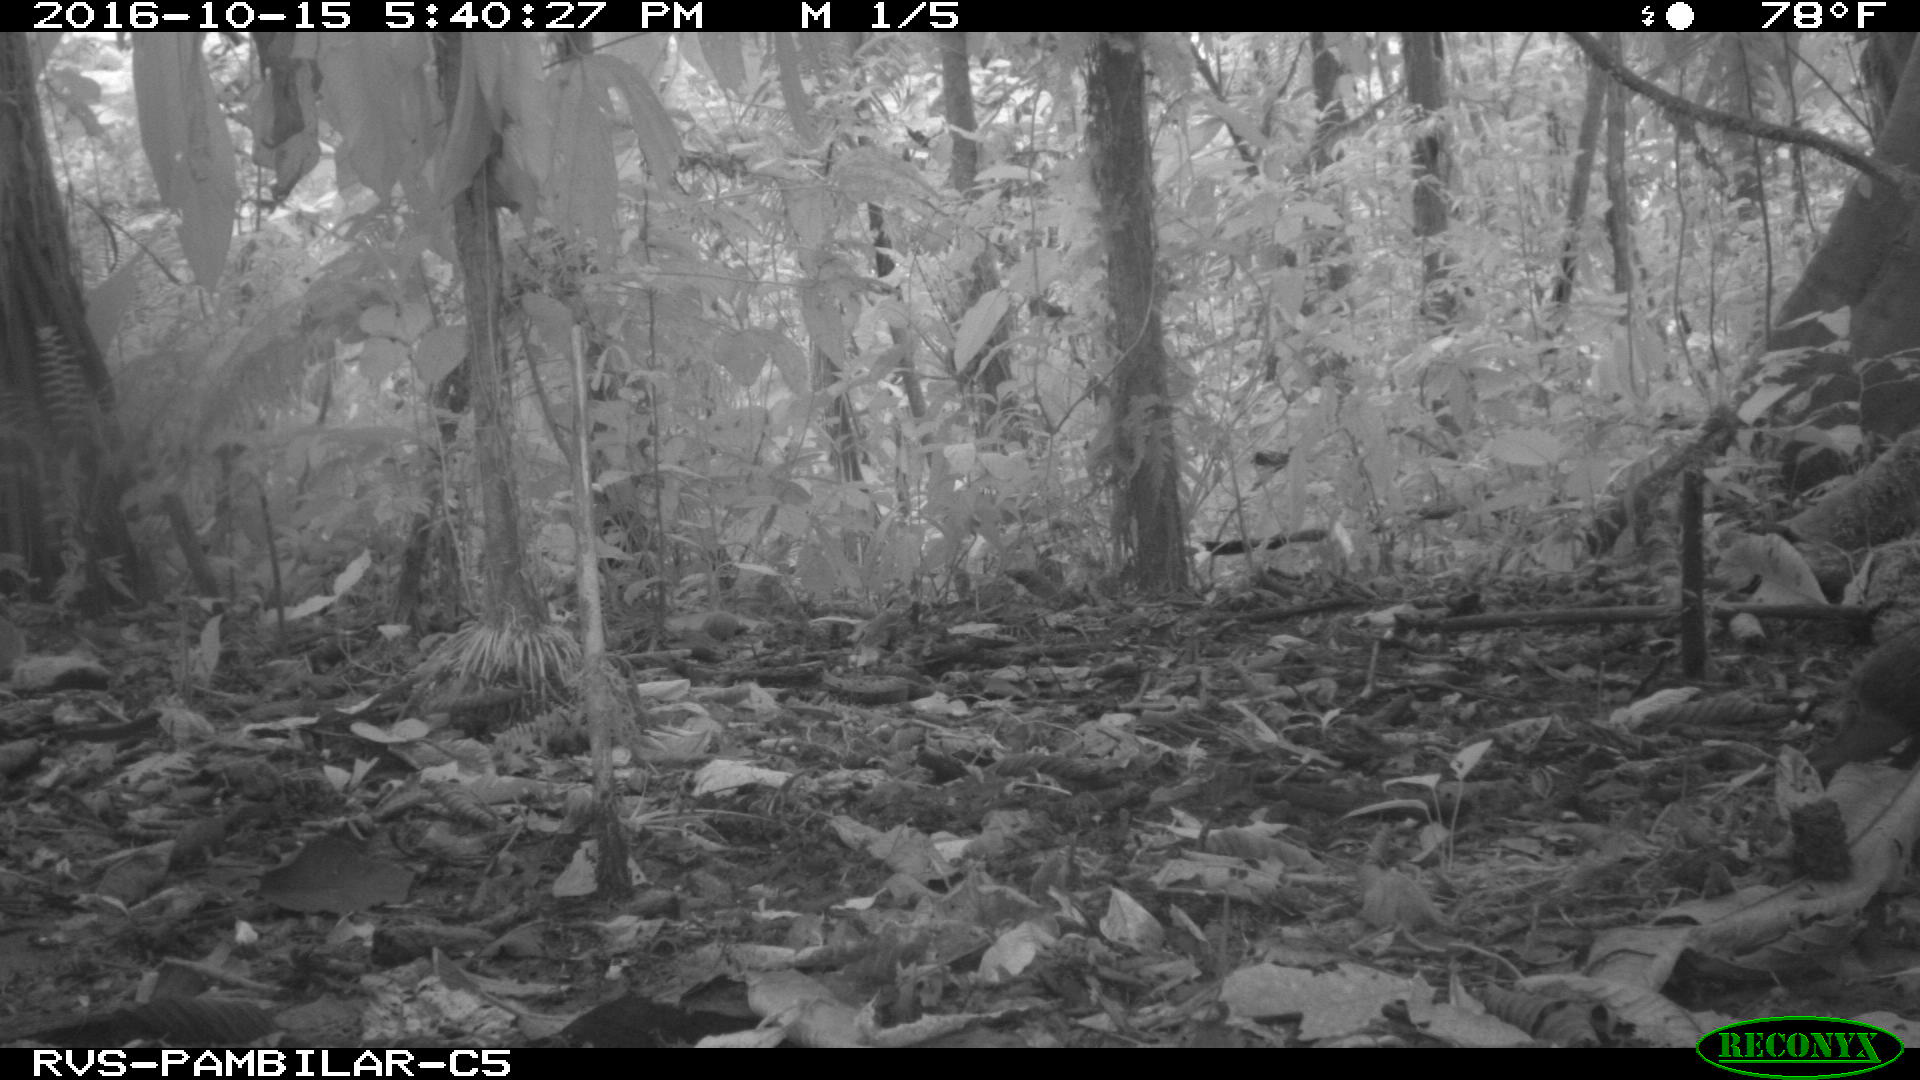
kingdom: Animalia
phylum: Chordata
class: Mammalia
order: Rodentia
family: Dasyproctidae
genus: Dasyprocta
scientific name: Dasyprocta punctata
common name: Central american agouti
